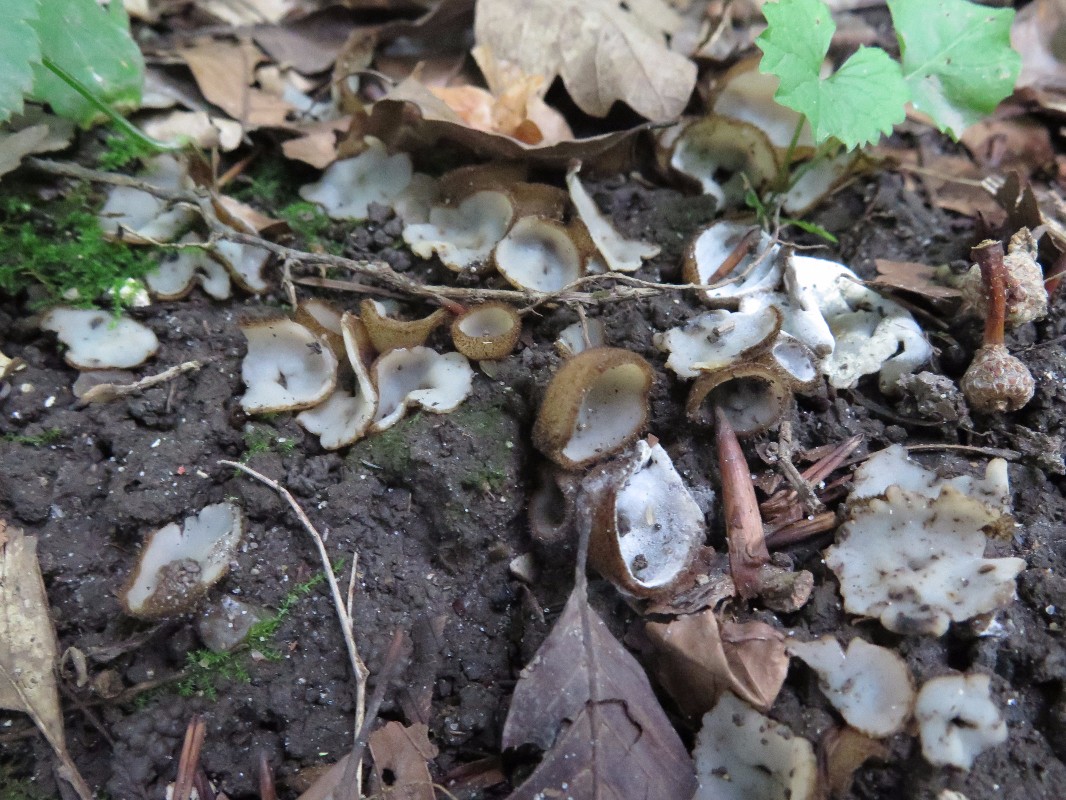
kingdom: Fungi
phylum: Ascomycota
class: Pezizomycetes
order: Pezizales
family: Pyronemataceae
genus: Humaria
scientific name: Humaria hemisphaerica
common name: halvkugleformet børstebæger
